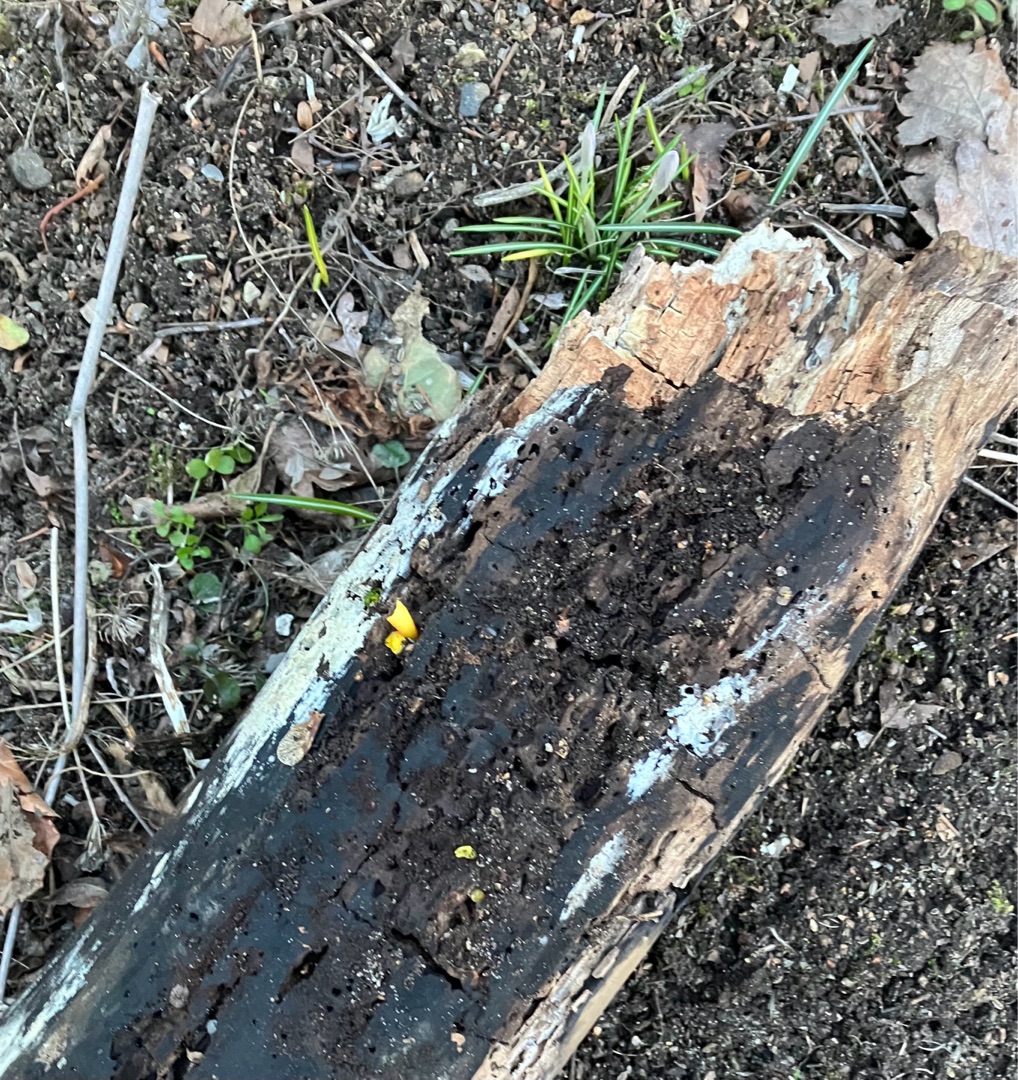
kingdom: Fungi
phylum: Basidiomycota
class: Tremellomycetes
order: Tremellales
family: Tremellaceae
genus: Tremella
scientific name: Tremella mesenterica
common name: Gul bævresvamp
